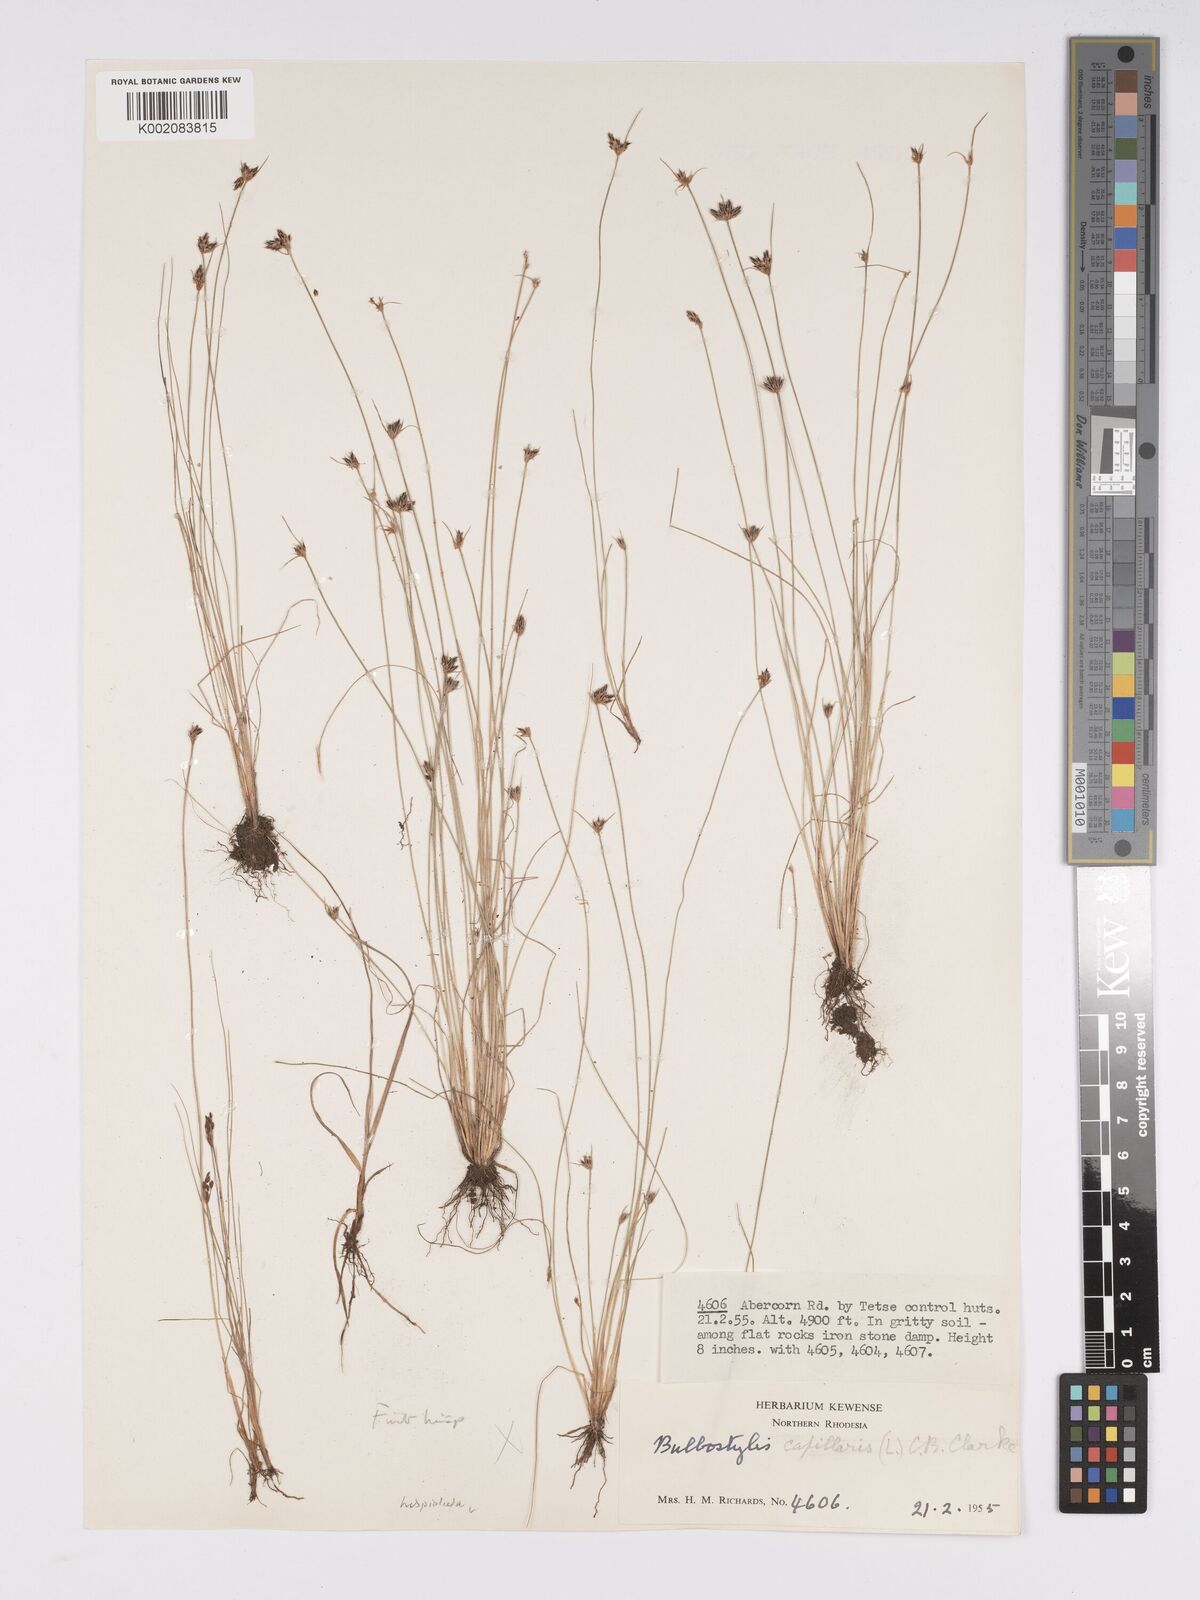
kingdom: Plantae
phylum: Tracheophyta
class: Liliopsida
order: Poales
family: Cyperaceae
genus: Bulbostylis
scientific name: Bulbostylis hispidula
